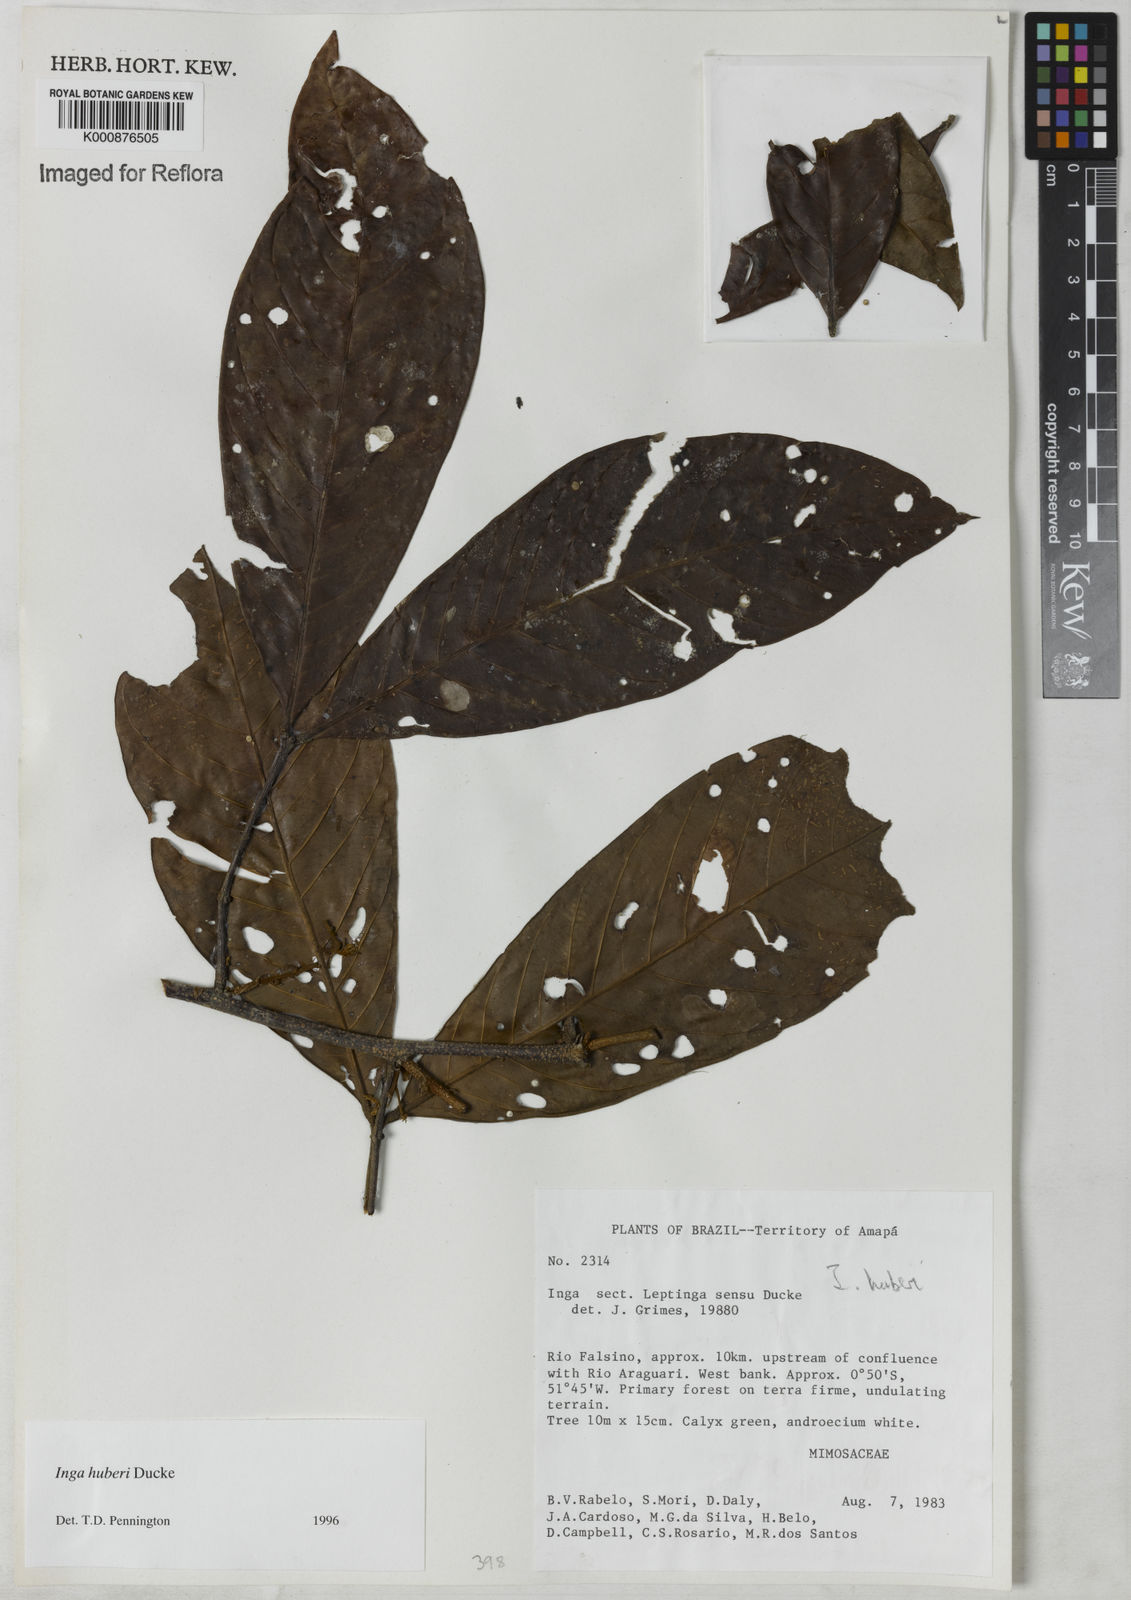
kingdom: Plantae
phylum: Tracheophyta
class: Magnoliopsida
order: Fabales
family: Fabaceae
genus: Inga
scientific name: Inga huberi
